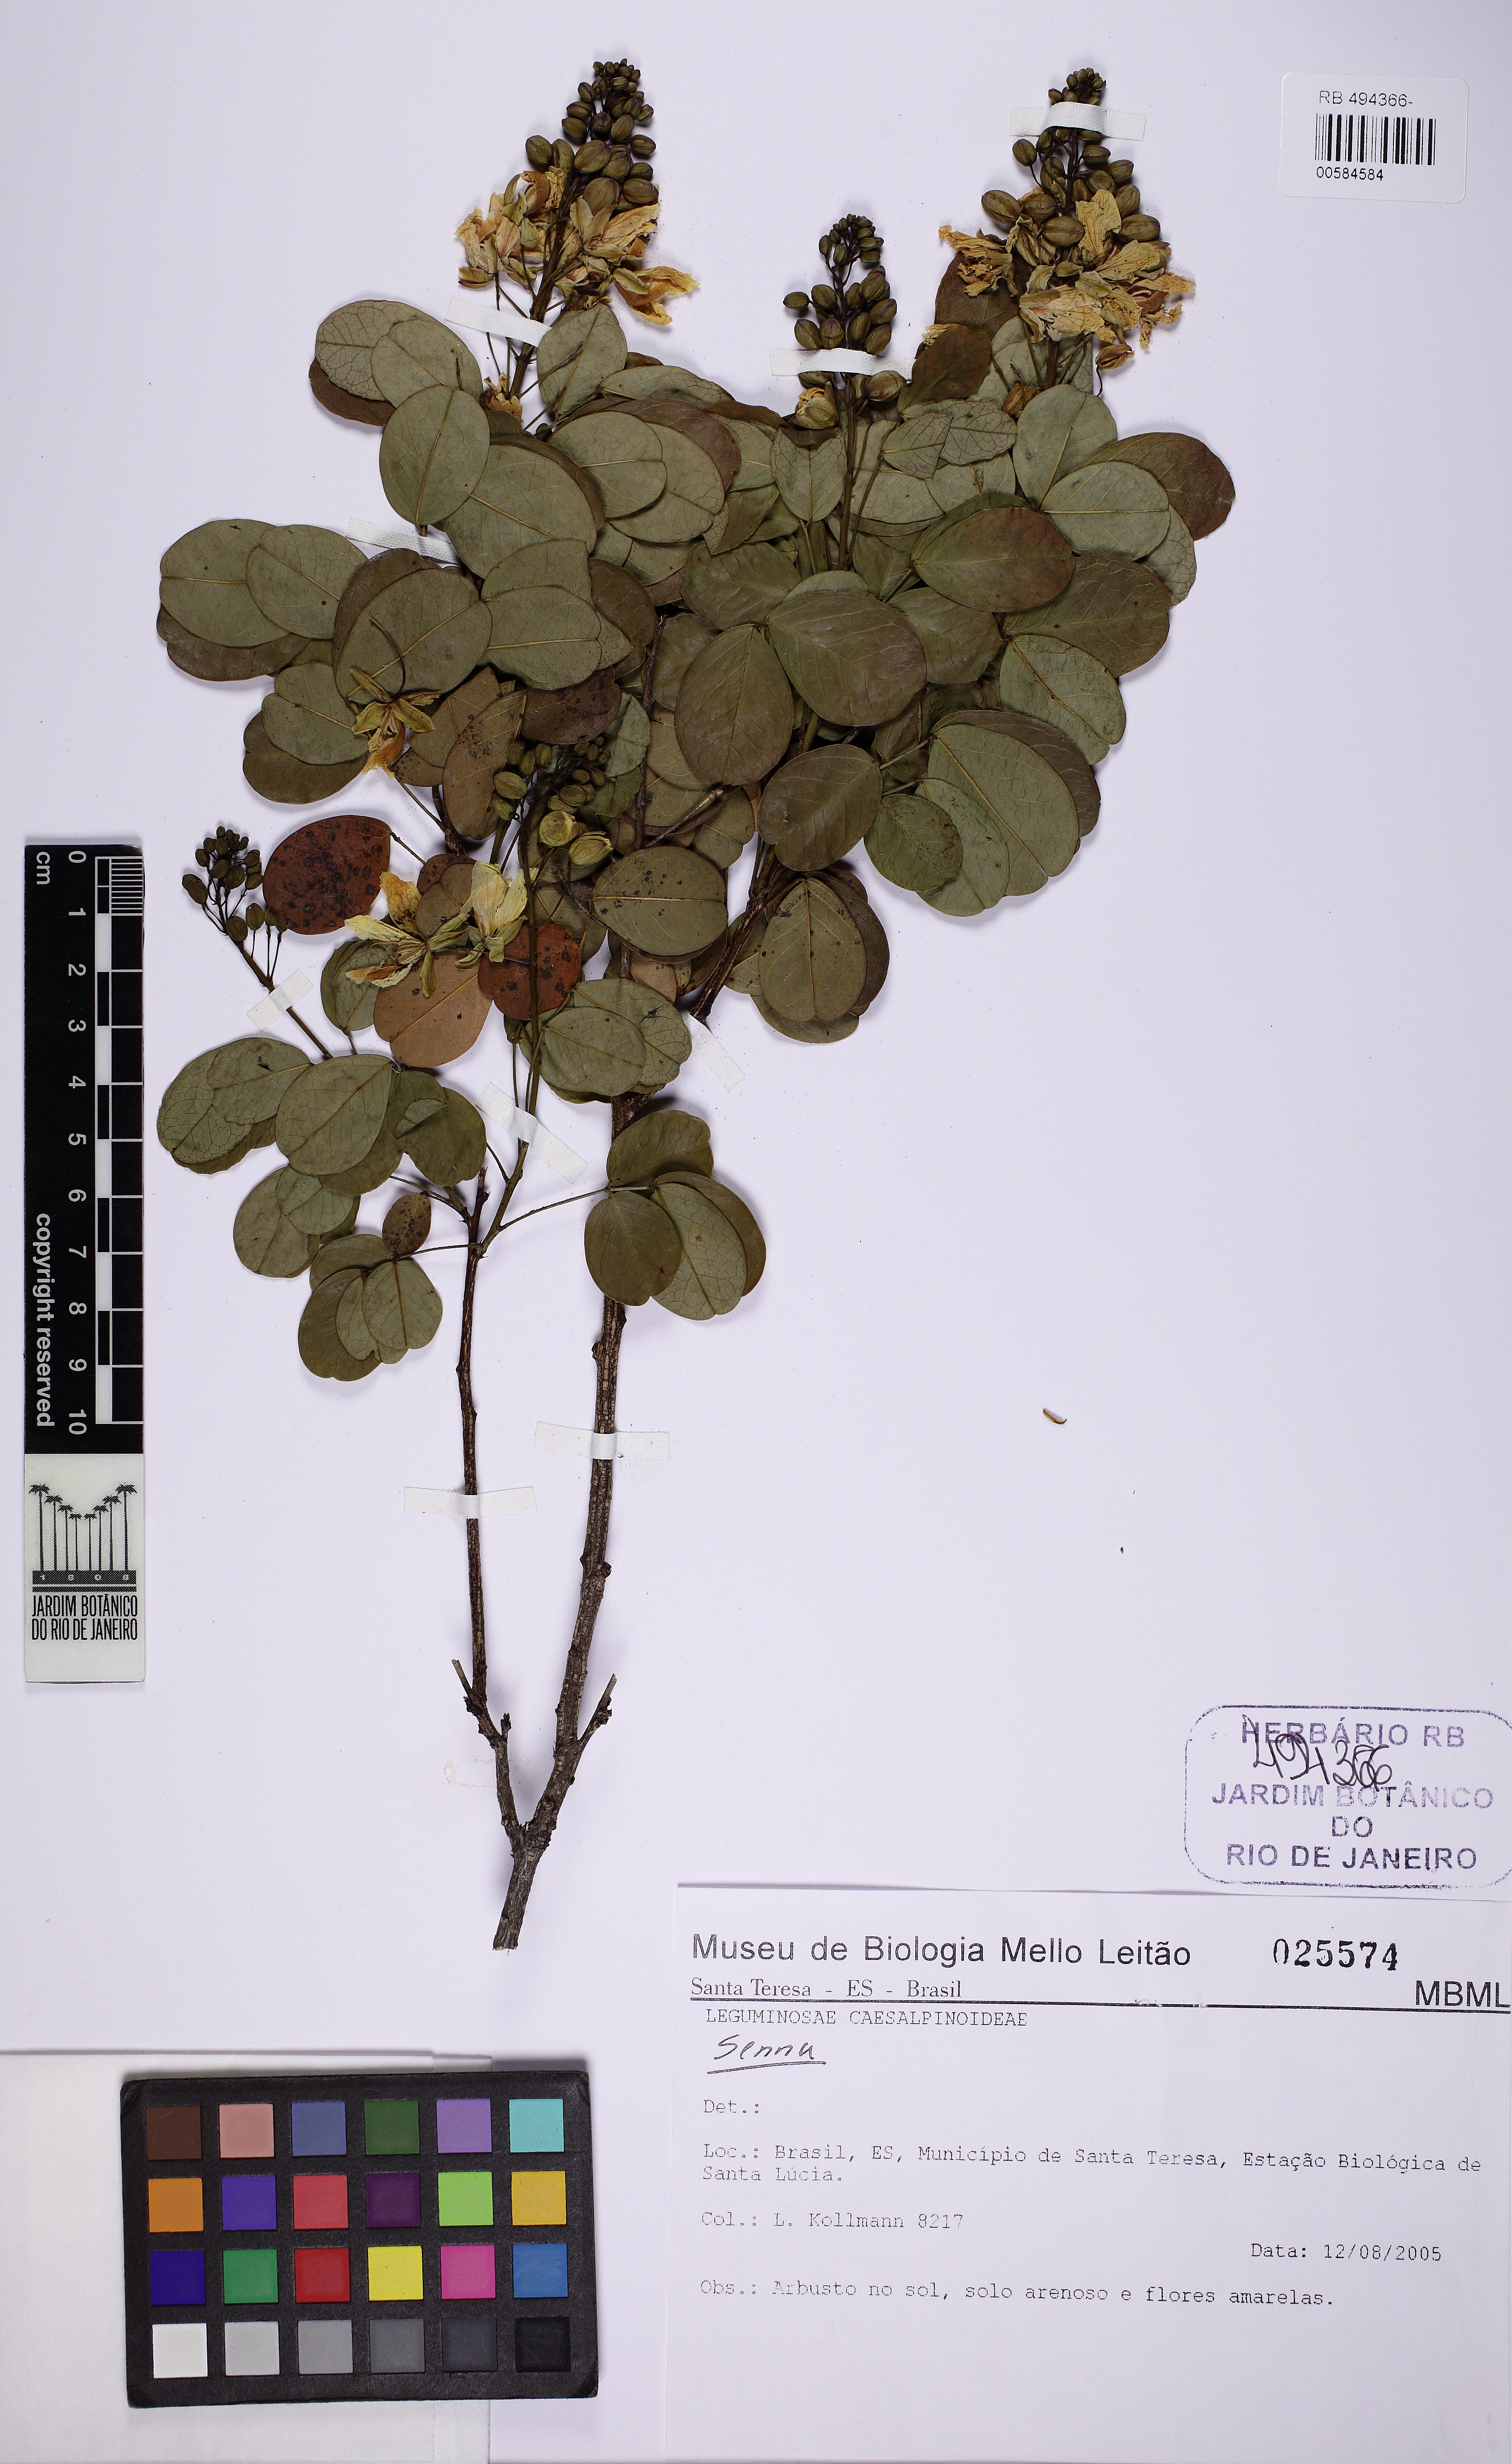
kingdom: Plantae
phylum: Tracheophyta
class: Magnoliopsida
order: Fabales
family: Fabaceae
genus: Chamaecrista
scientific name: Chamaecrista
